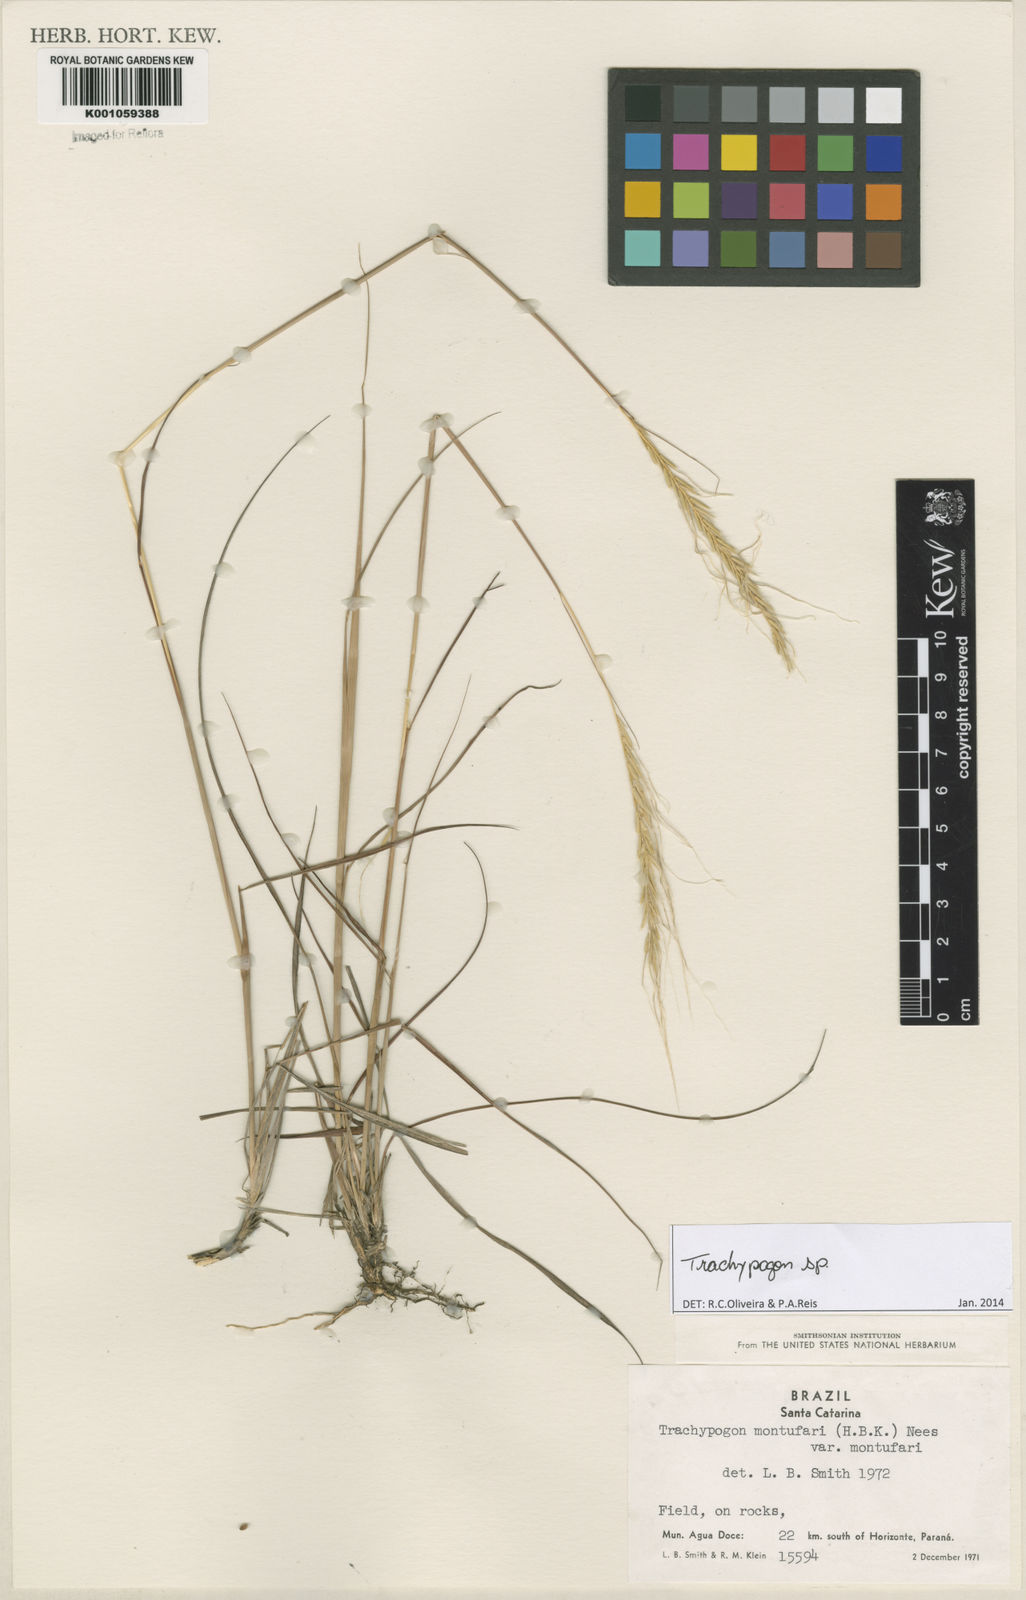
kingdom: Plantae
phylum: Tracheophyta
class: Liliopsida
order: Poales
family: Poaceae
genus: Trachypogon
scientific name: Trachypogon
